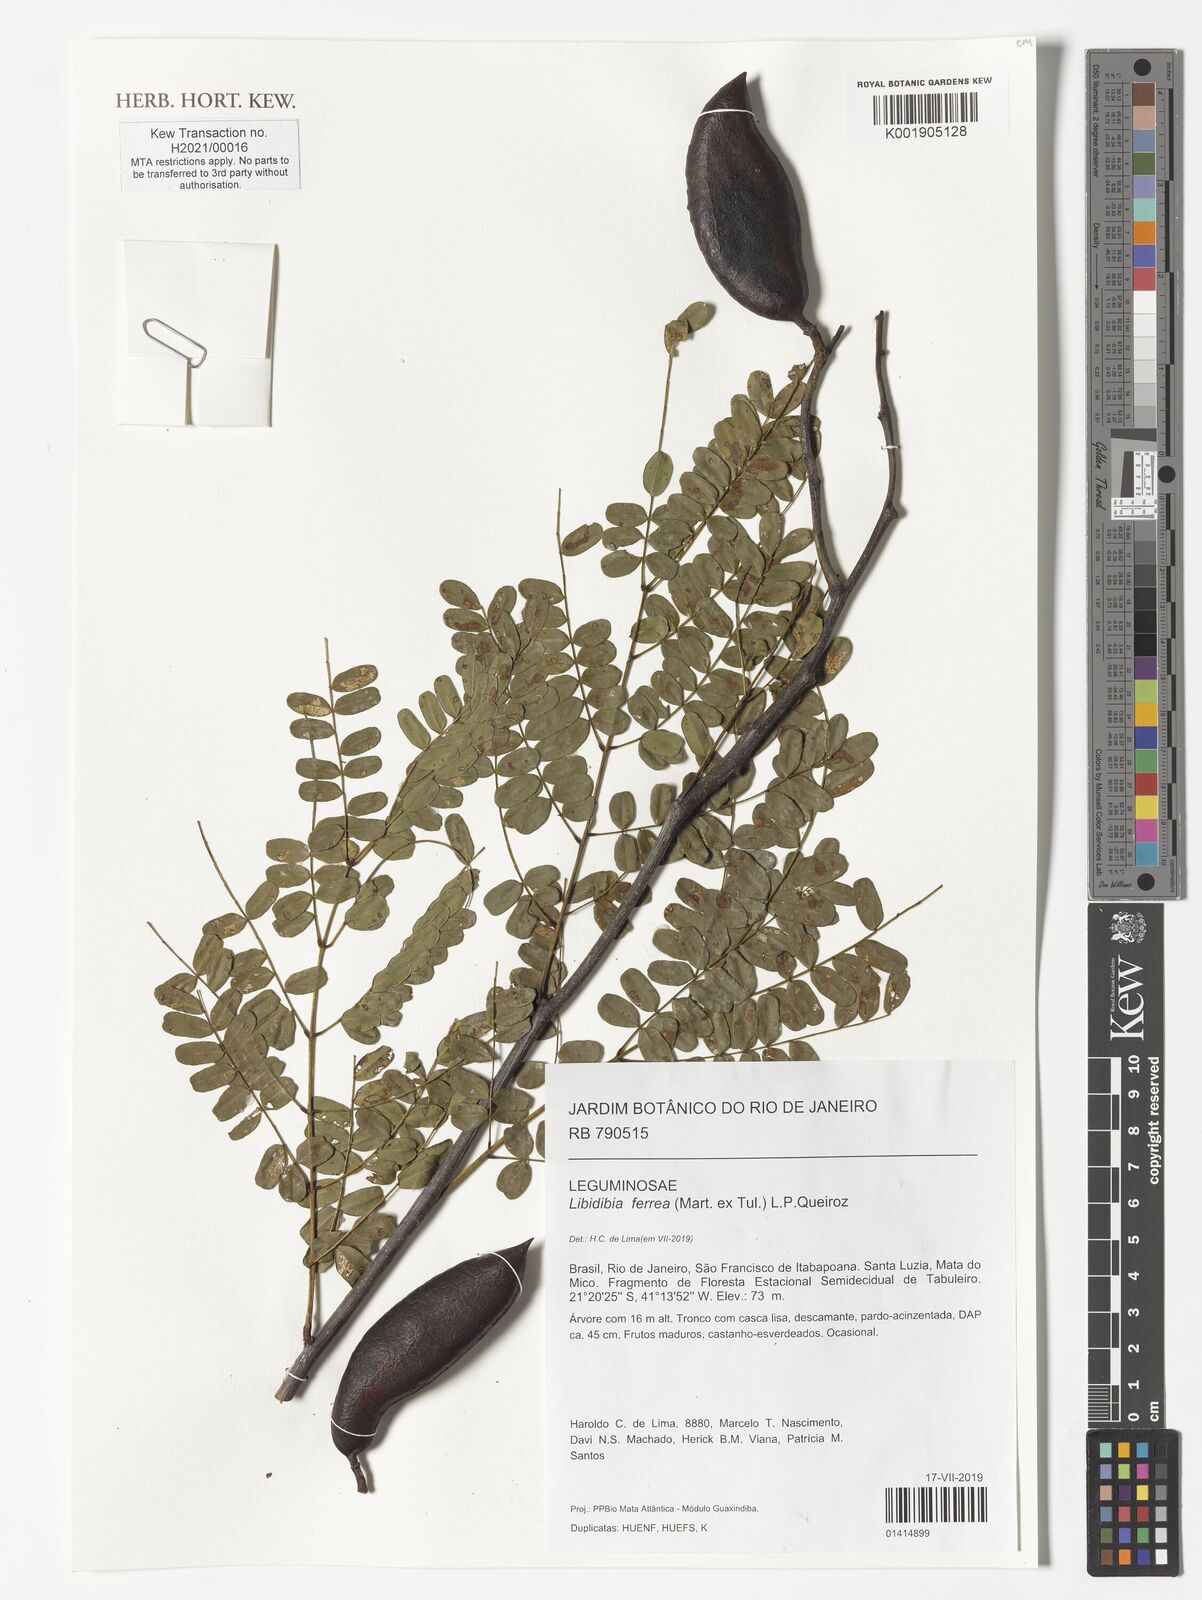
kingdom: Plantae
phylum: Tracheophyta
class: Magnoliopsida
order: Fabales
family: Fabaceae
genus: Libidibia
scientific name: Libidibia ferrea
